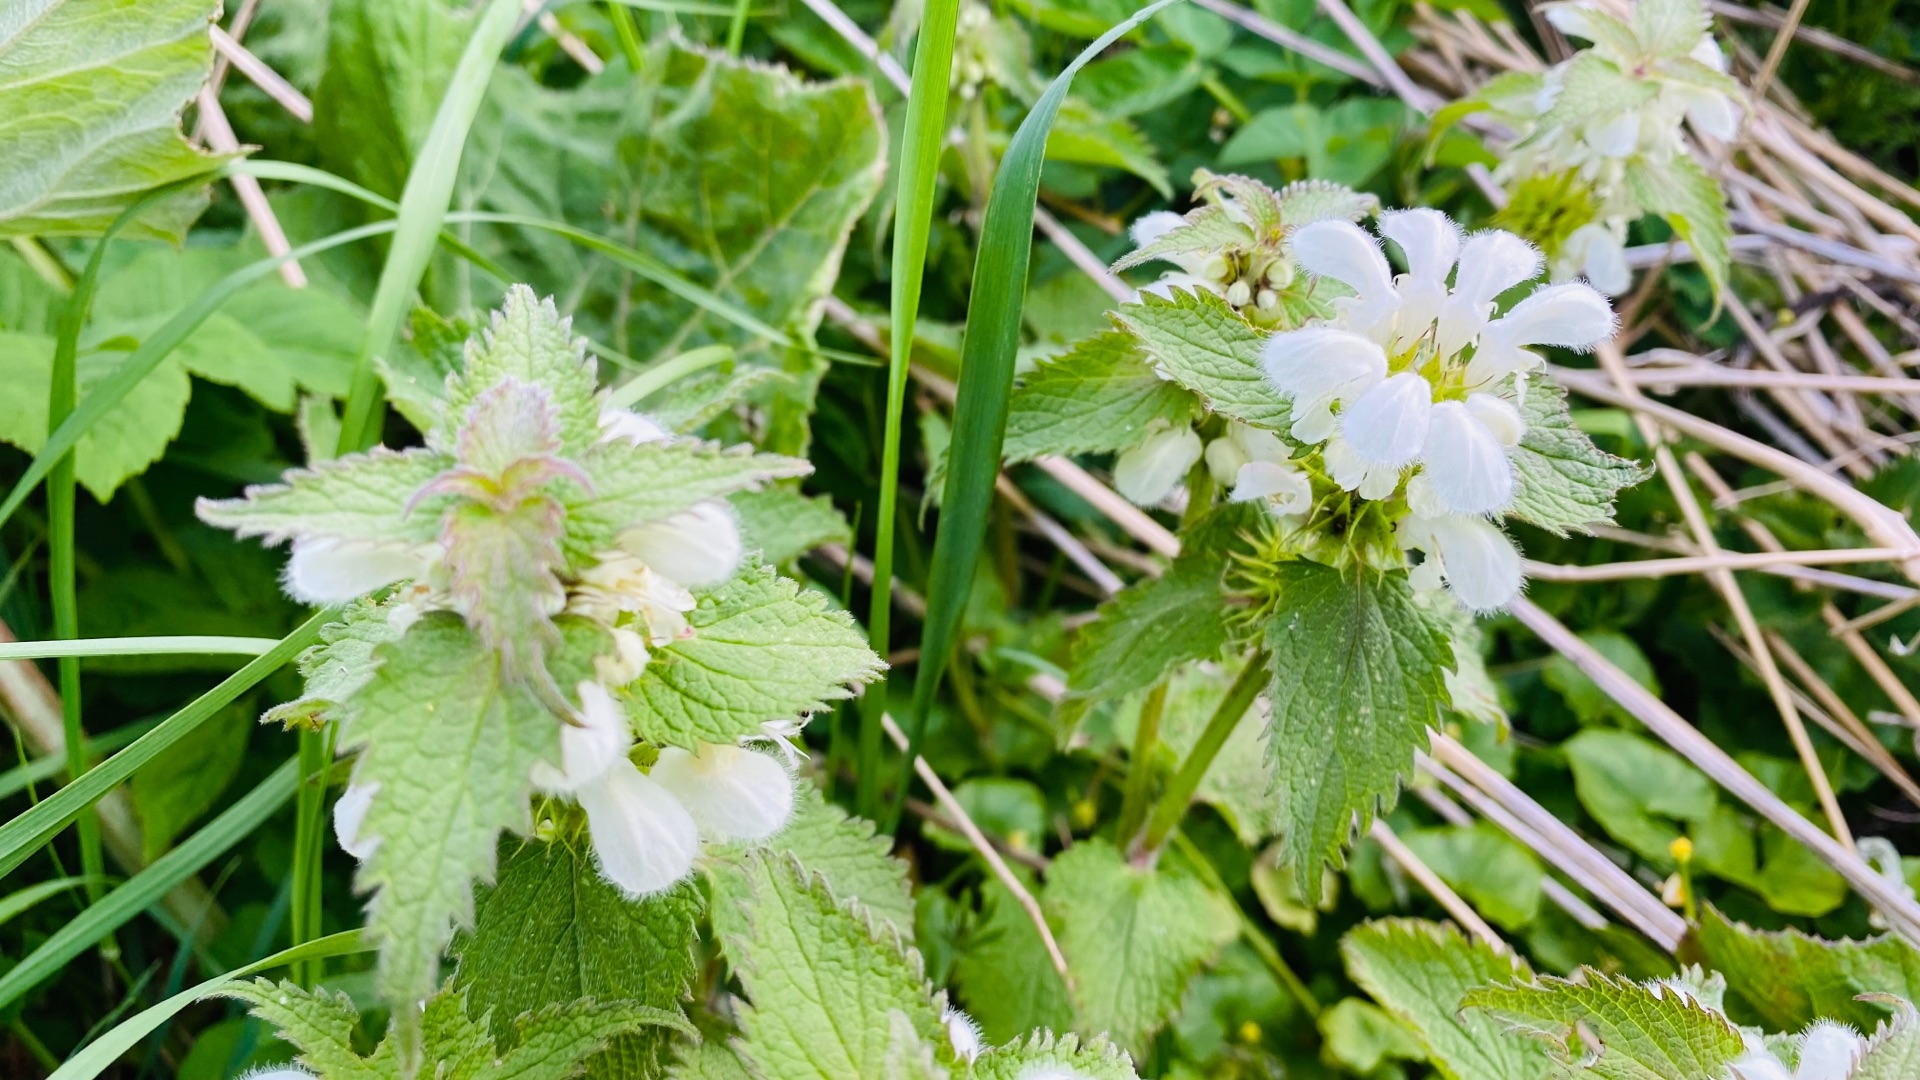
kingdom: Plantae
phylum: Tracheophyta
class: Magnoliopsida
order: Lamiales
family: Lamiaceae
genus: Lamium
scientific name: Lamium album
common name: Døvnælde
